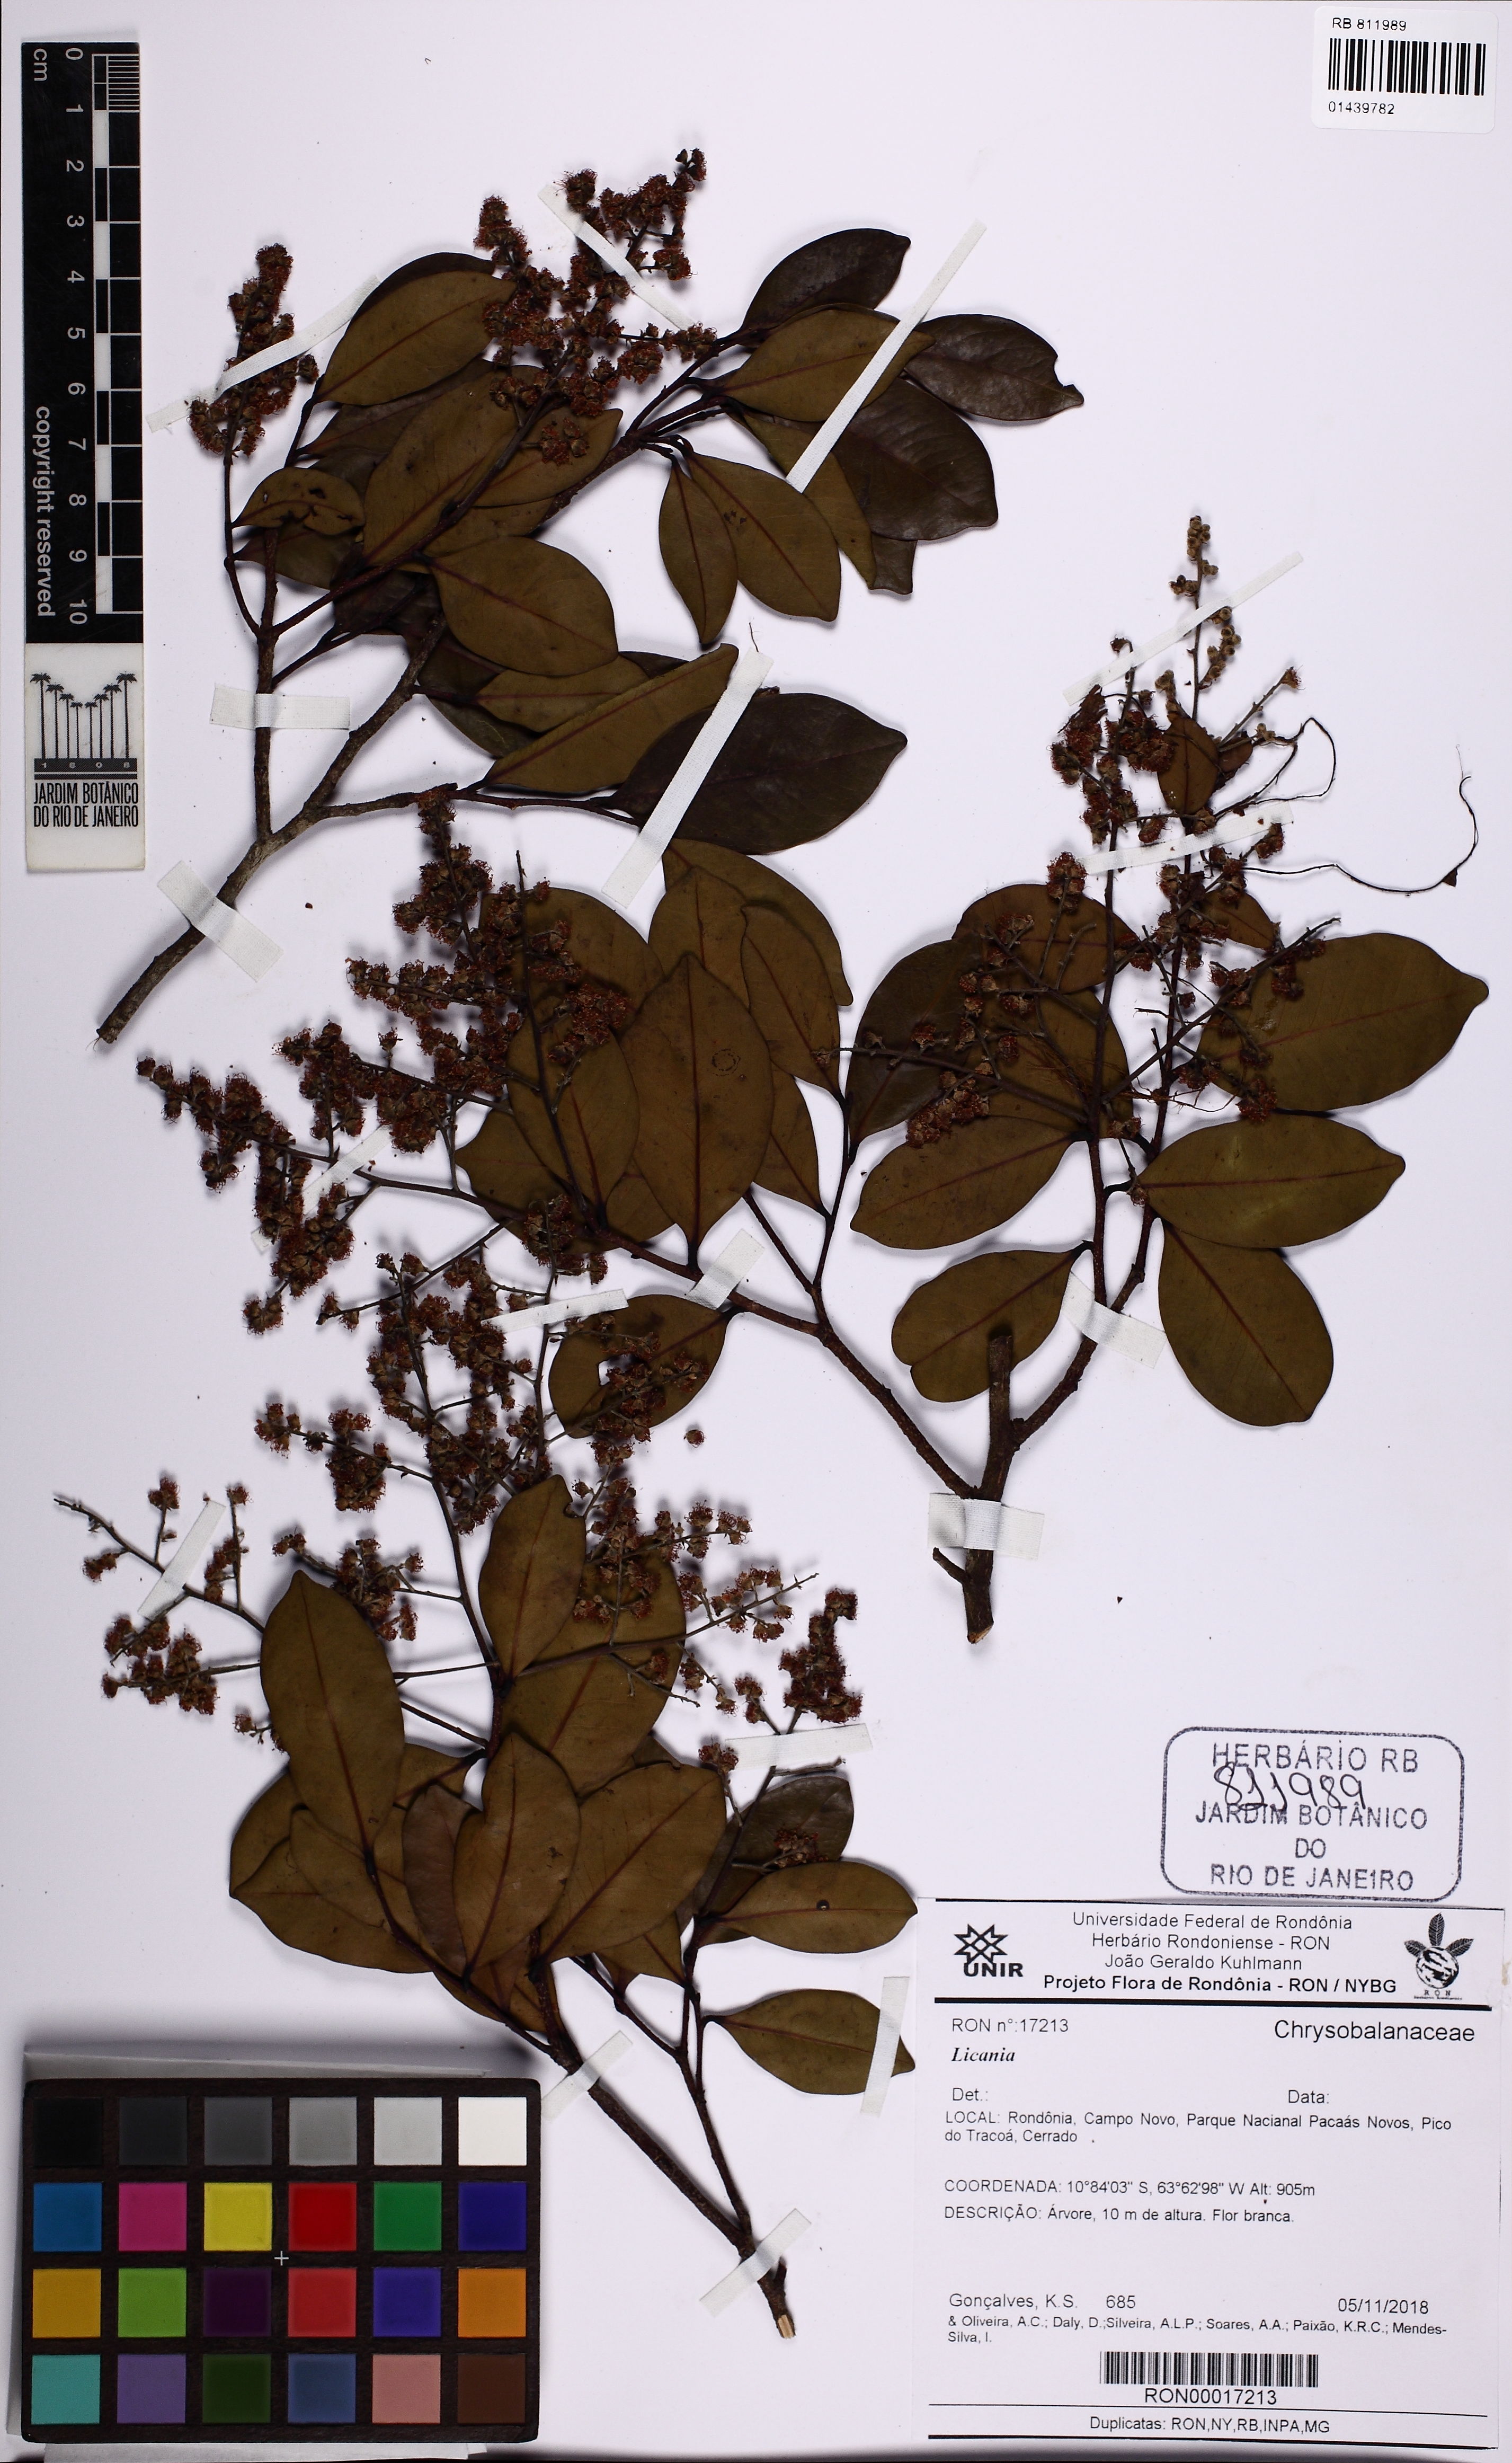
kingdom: Plantae
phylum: Tracheophyta
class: Magnoliopsida
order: Malpighiales
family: Chrysobalanaceae
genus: Licania
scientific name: Licania
